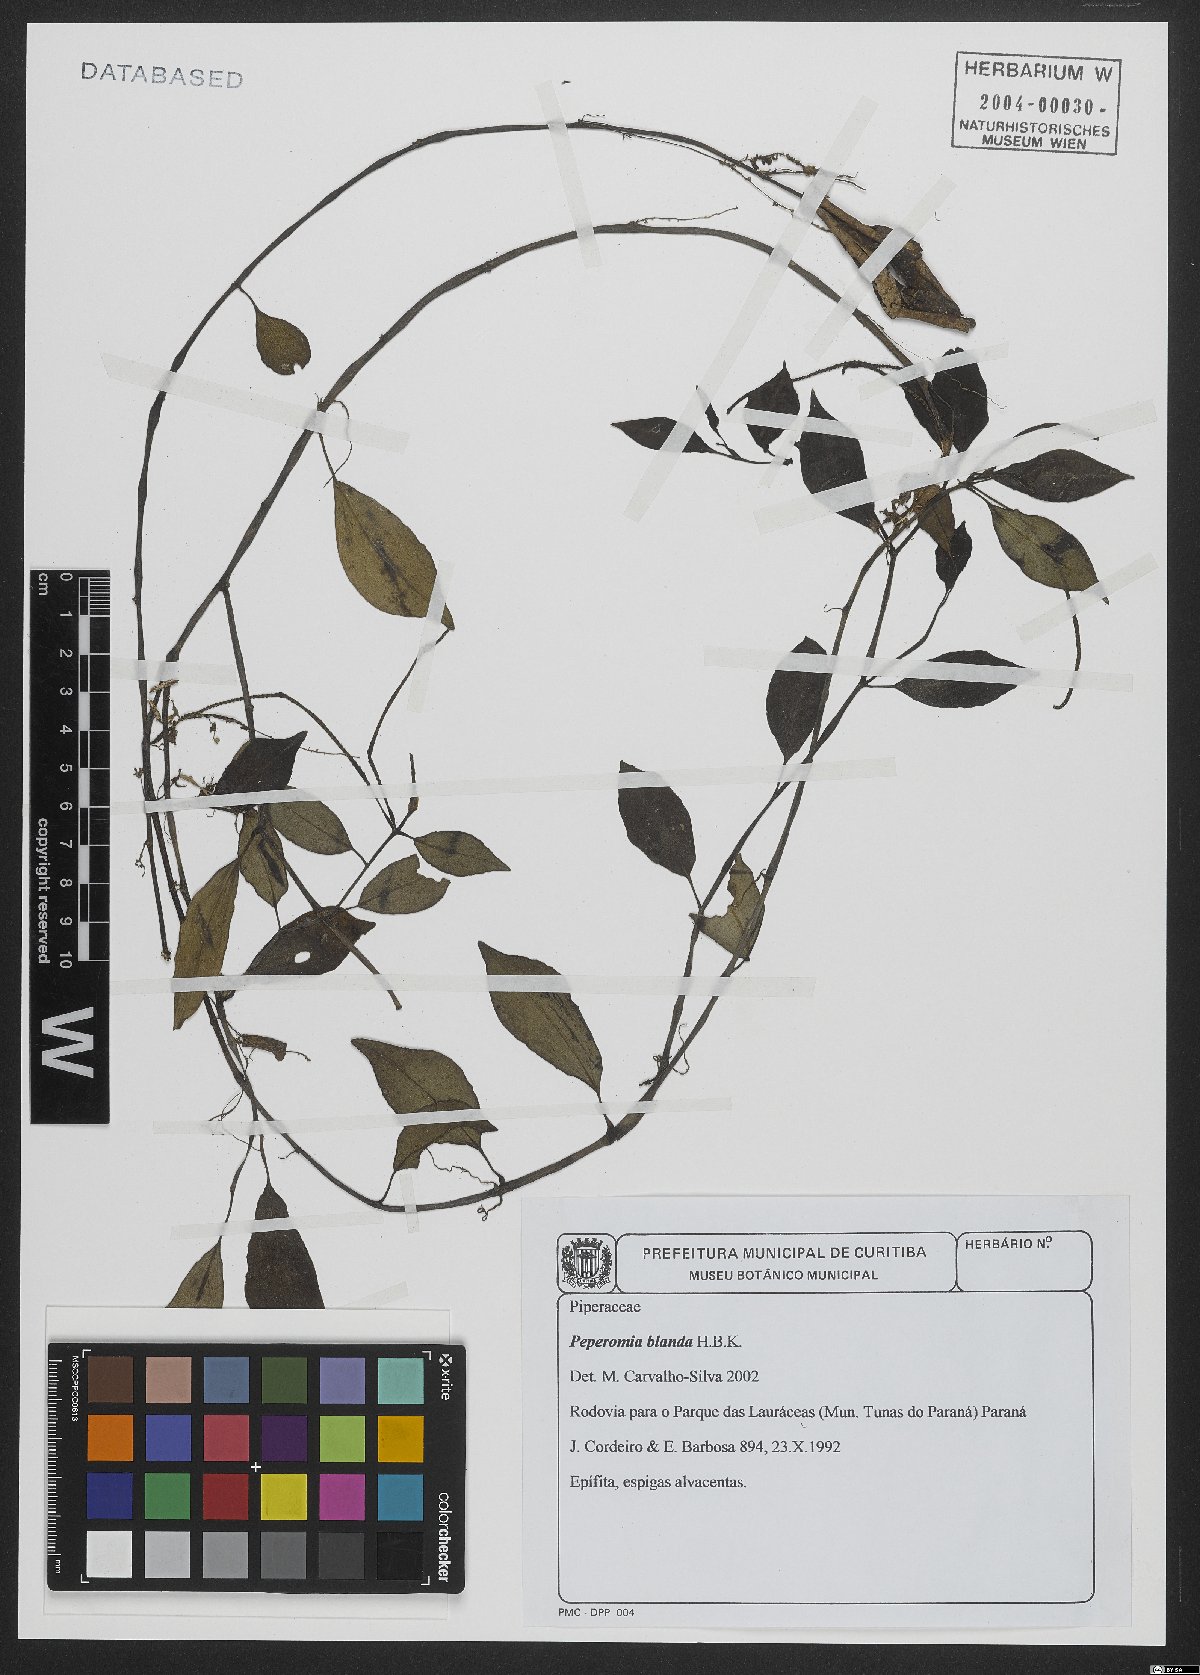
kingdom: Plantae
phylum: Tracheophyta
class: Magnoliopsida
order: Piperales
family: Piperaceae
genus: Peperomia
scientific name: Peperomia blanda
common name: Arid-land peperomia
